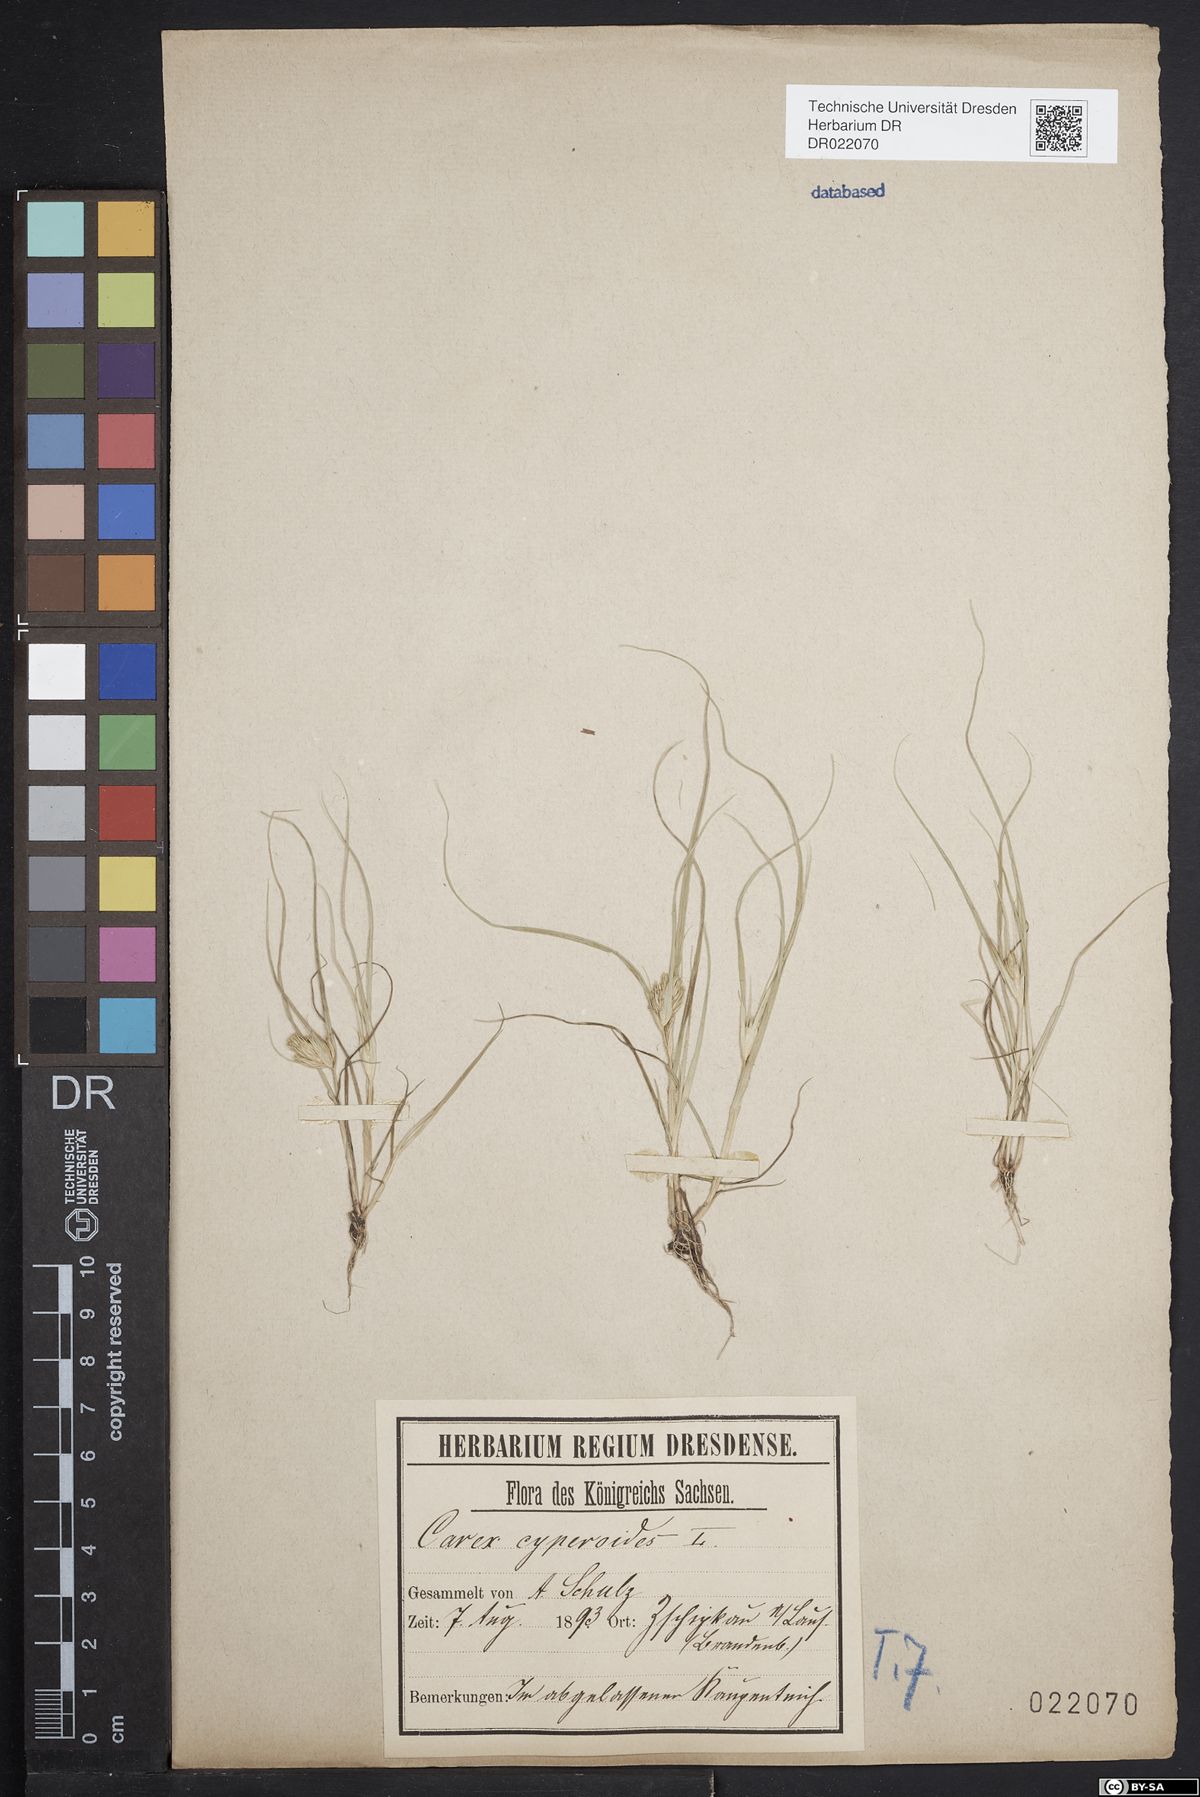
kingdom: Plantae
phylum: Tracheophyta
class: Liliopsida
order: Poales
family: Cyperaceae
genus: Carex
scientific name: Carex bohemica
